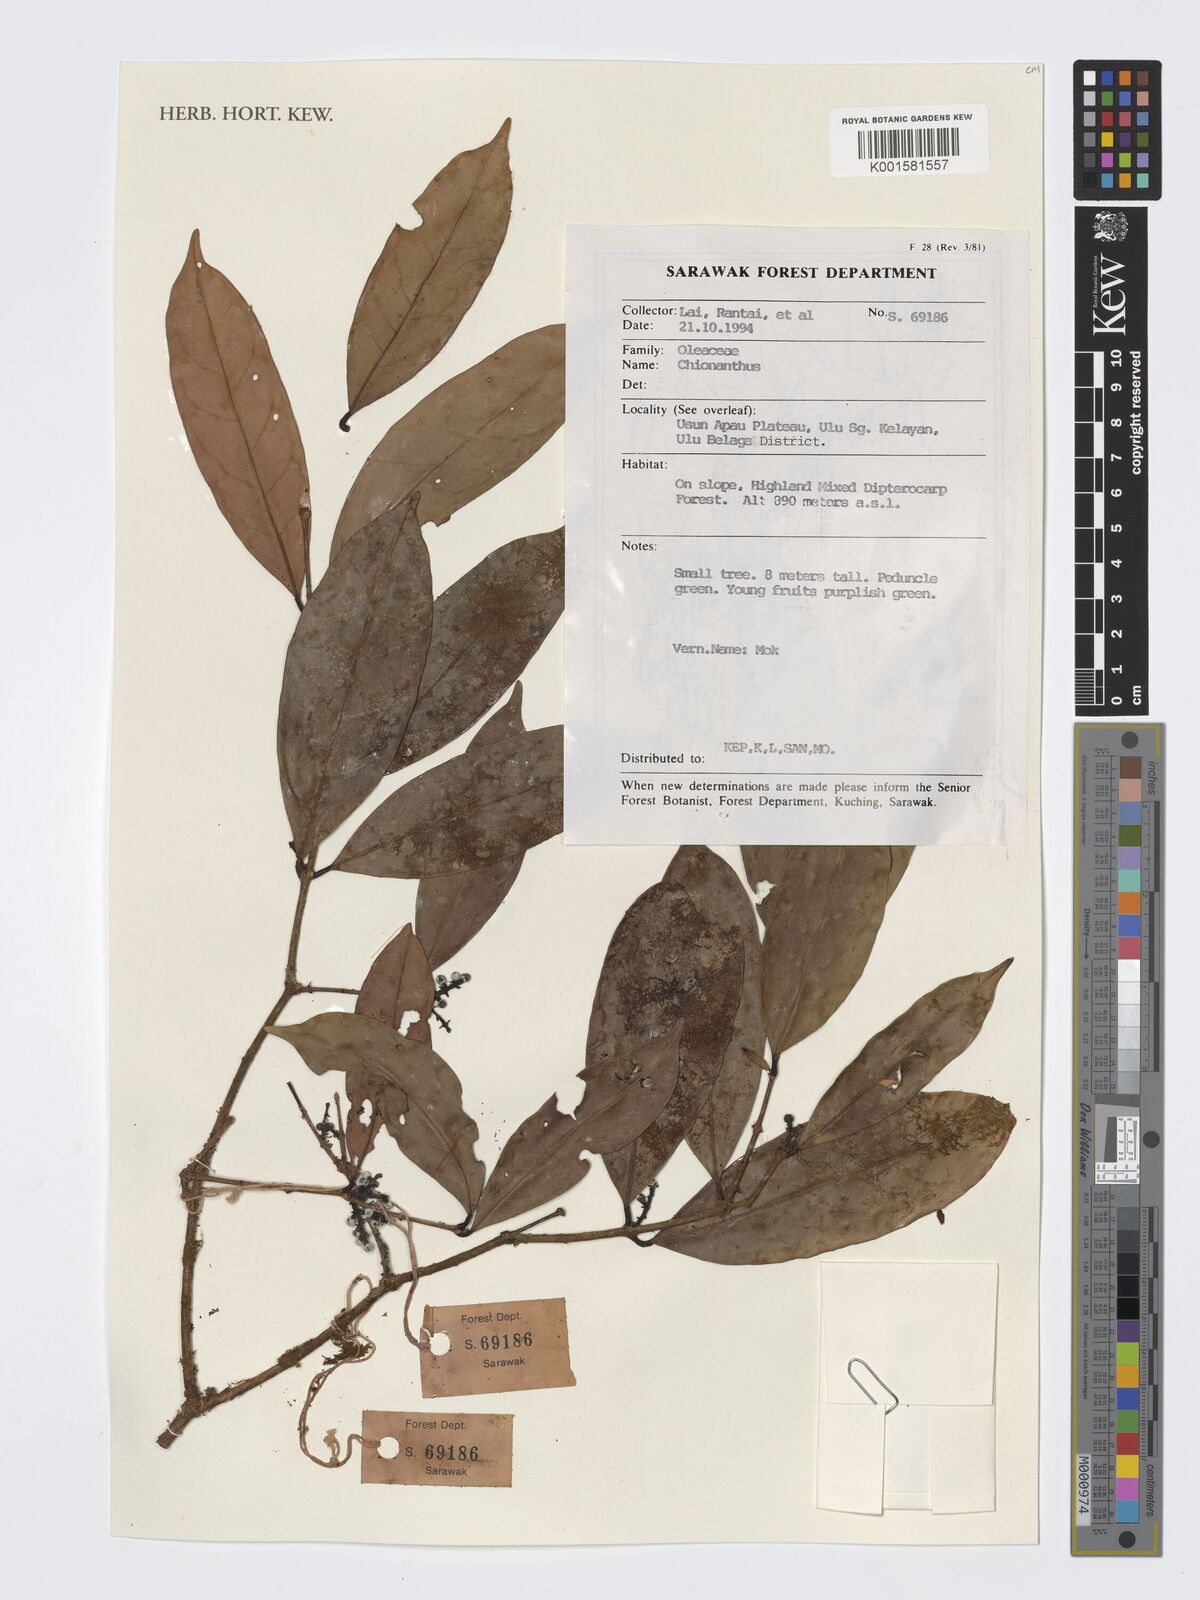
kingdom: Plantae
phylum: Tracheophyta
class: Magnoliopsida
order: Lamiales
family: Oleaceae
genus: Chionanthus
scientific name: Chionanthus
